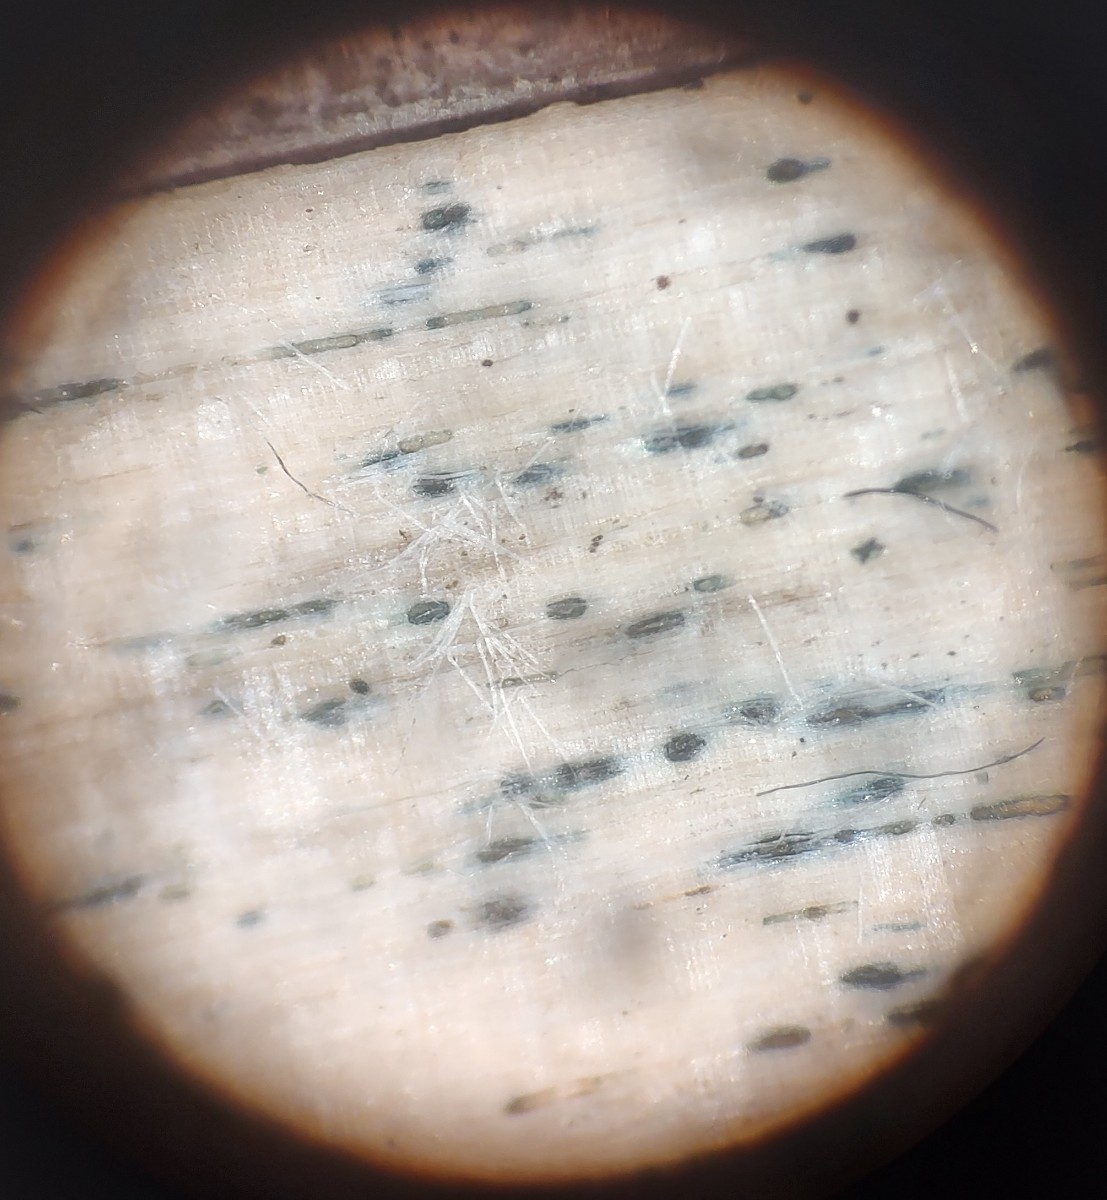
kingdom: Fungi
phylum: Ascomycota
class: Leotiomycetes
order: Helotiales
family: Helotiaceae
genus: Durella
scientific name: Durella atrocyanea
